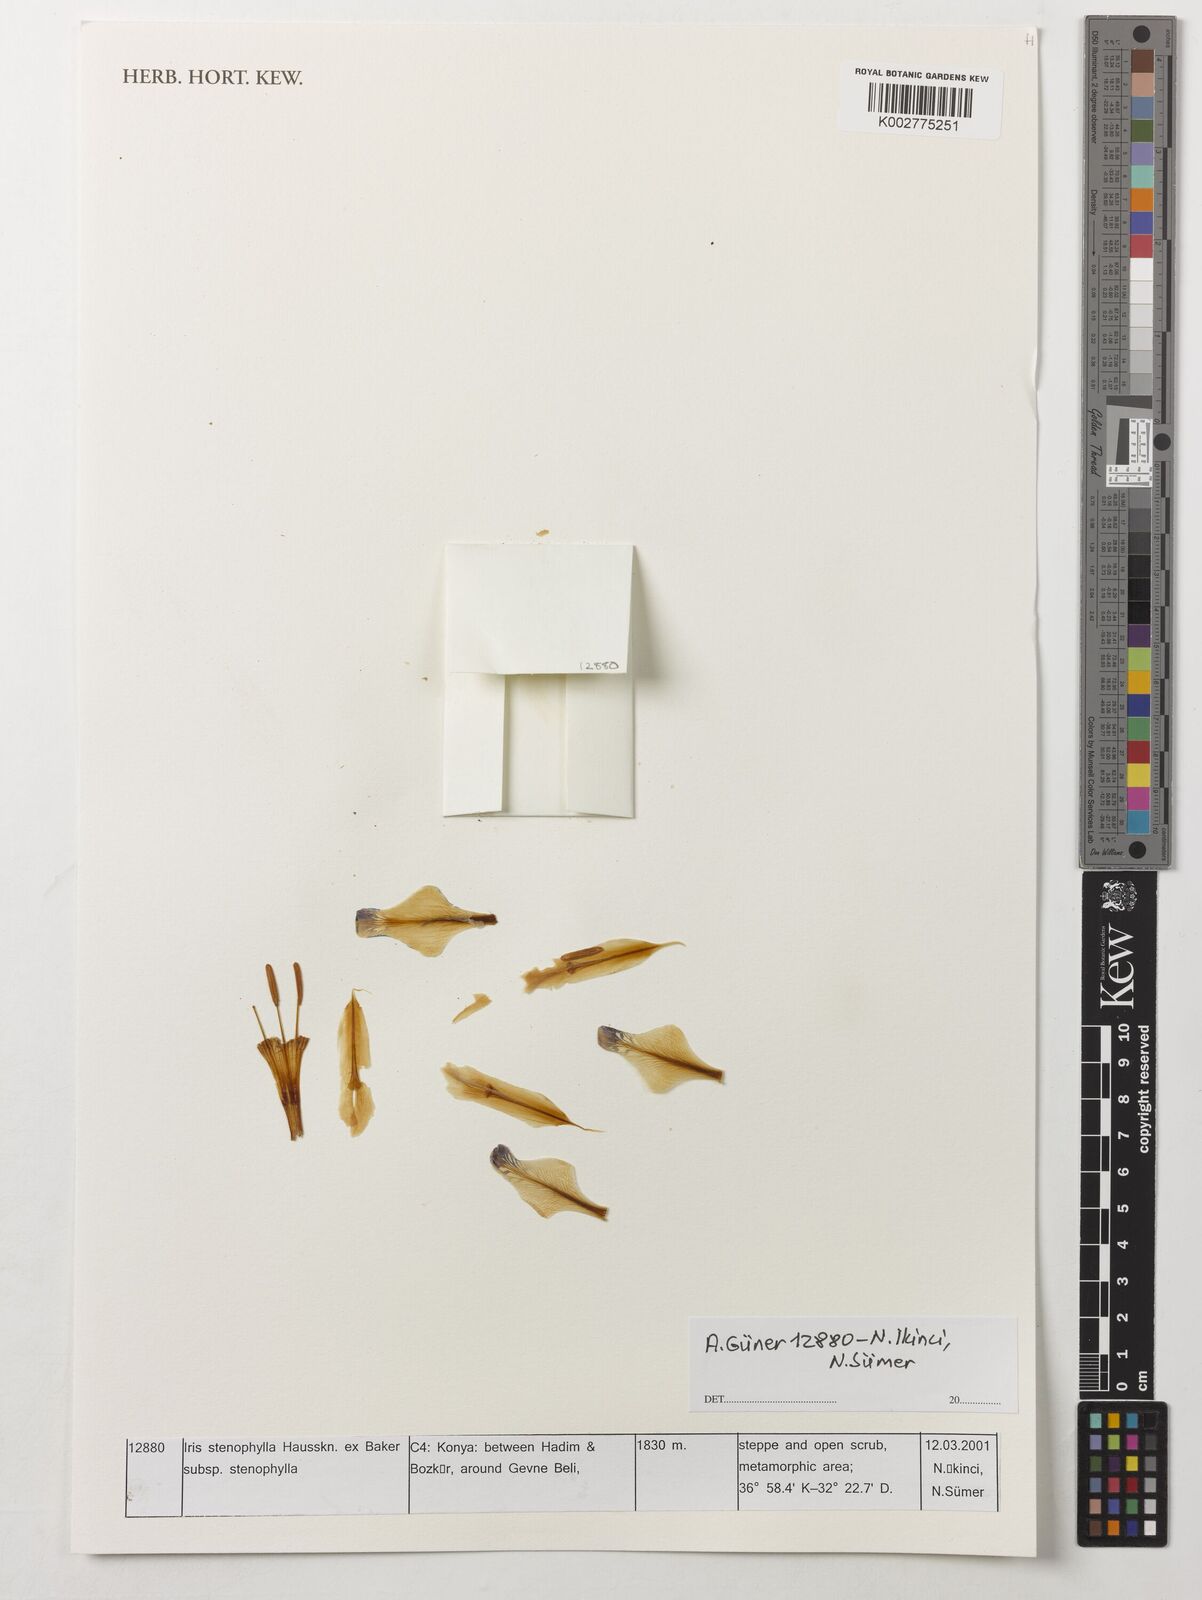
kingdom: Plantae
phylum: Tracheophyta
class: Liliopsida
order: Asparagales
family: Iridaceae
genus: Iris
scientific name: Iris stenophylla
